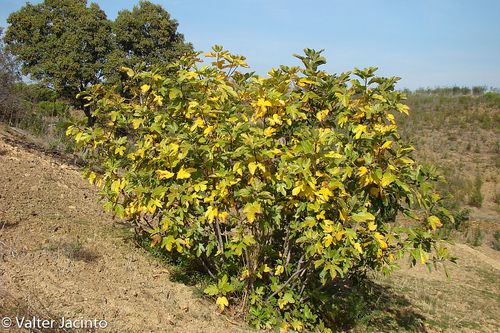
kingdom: Plantae
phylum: Tracheophyta
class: Magnoliopsida
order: Rosales
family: Moraceae
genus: Ficus
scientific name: Ficus carica
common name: Fig
